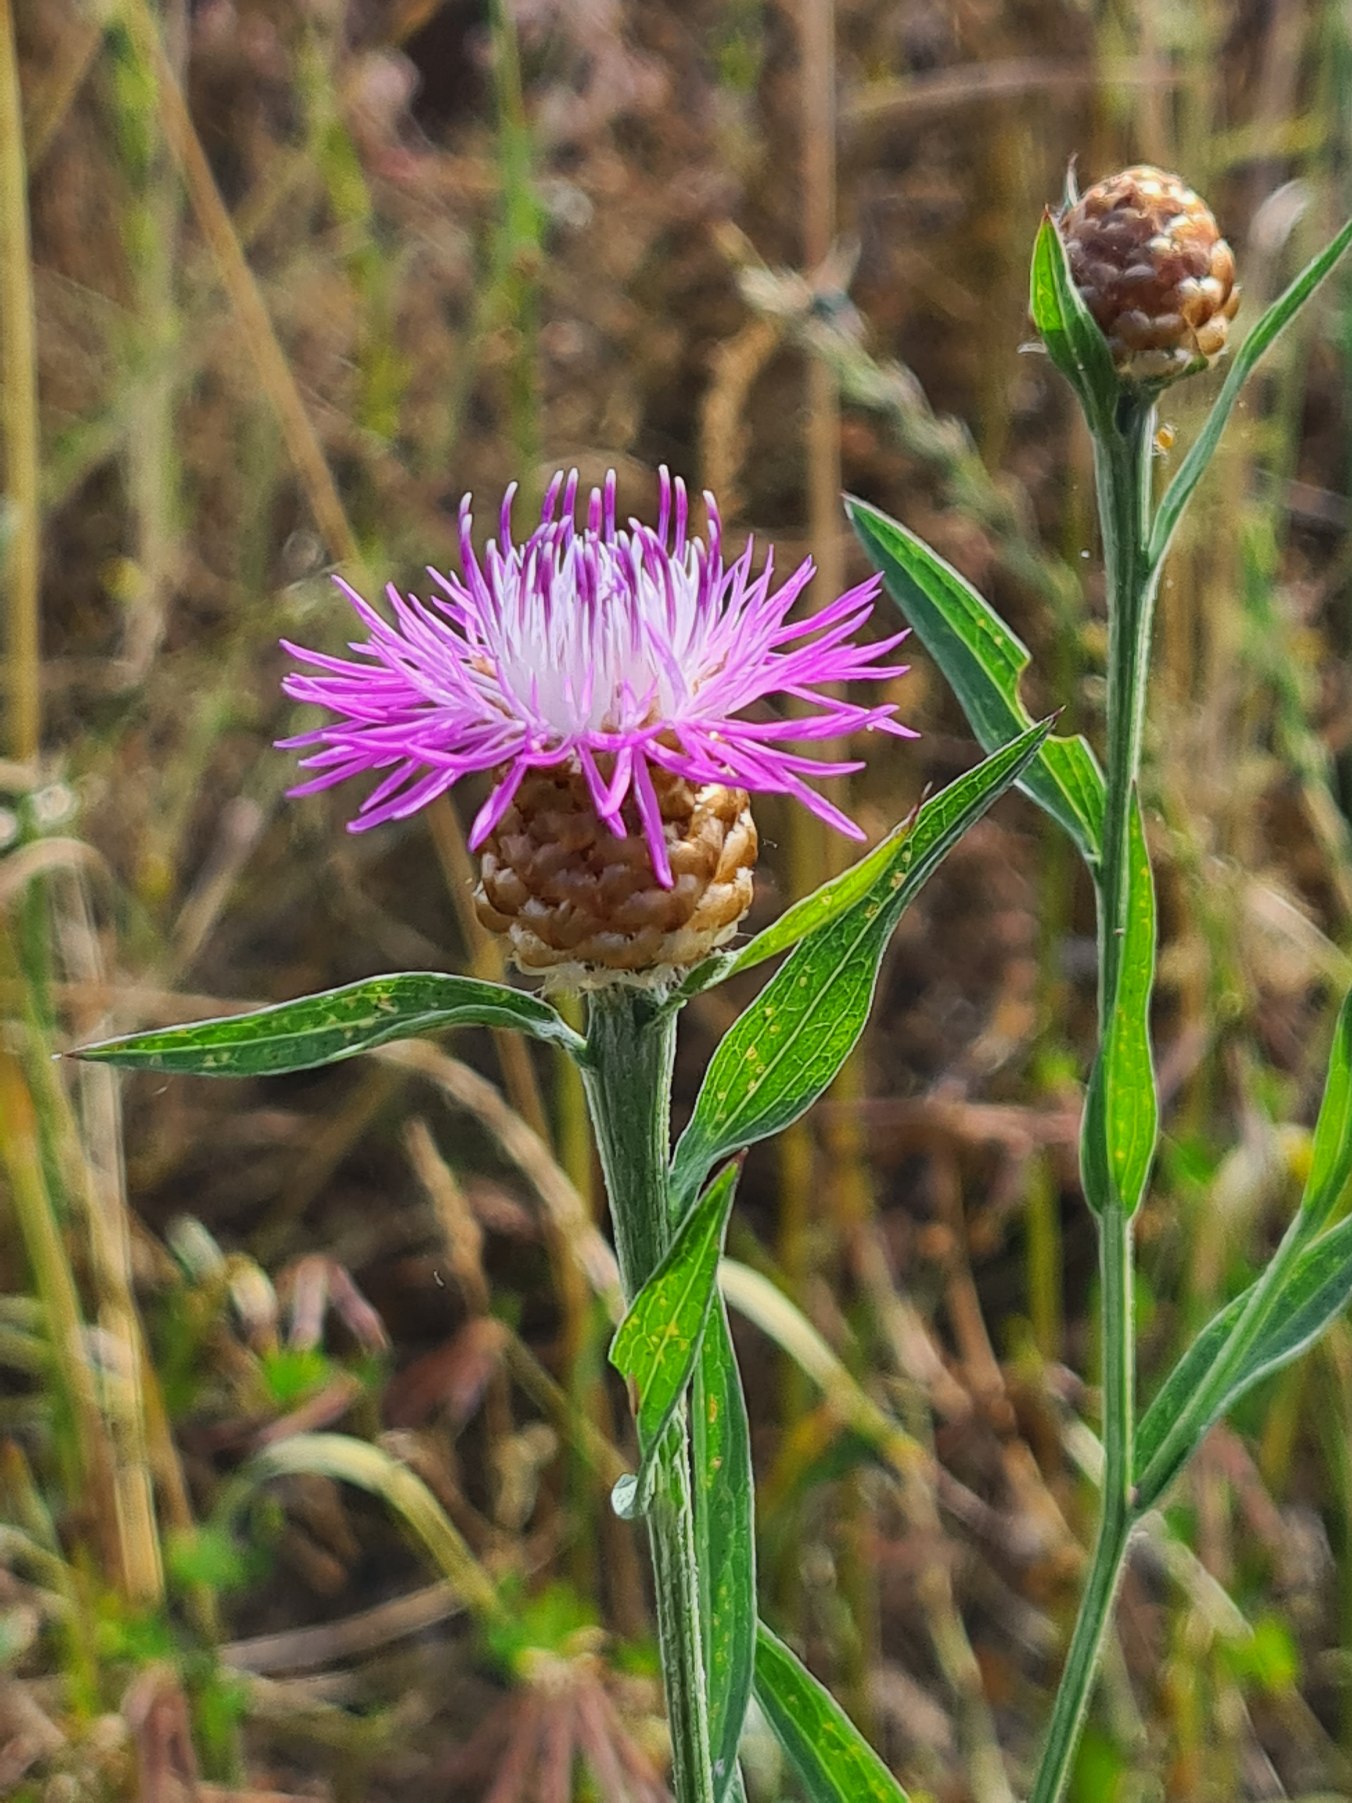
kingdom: Plantae
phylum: Tracheophyta
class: Magnoliopsida
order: Asterales
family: Asteraceae
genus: Centaurea
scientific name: Centaurea jacea
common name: Almindelig knopurt
